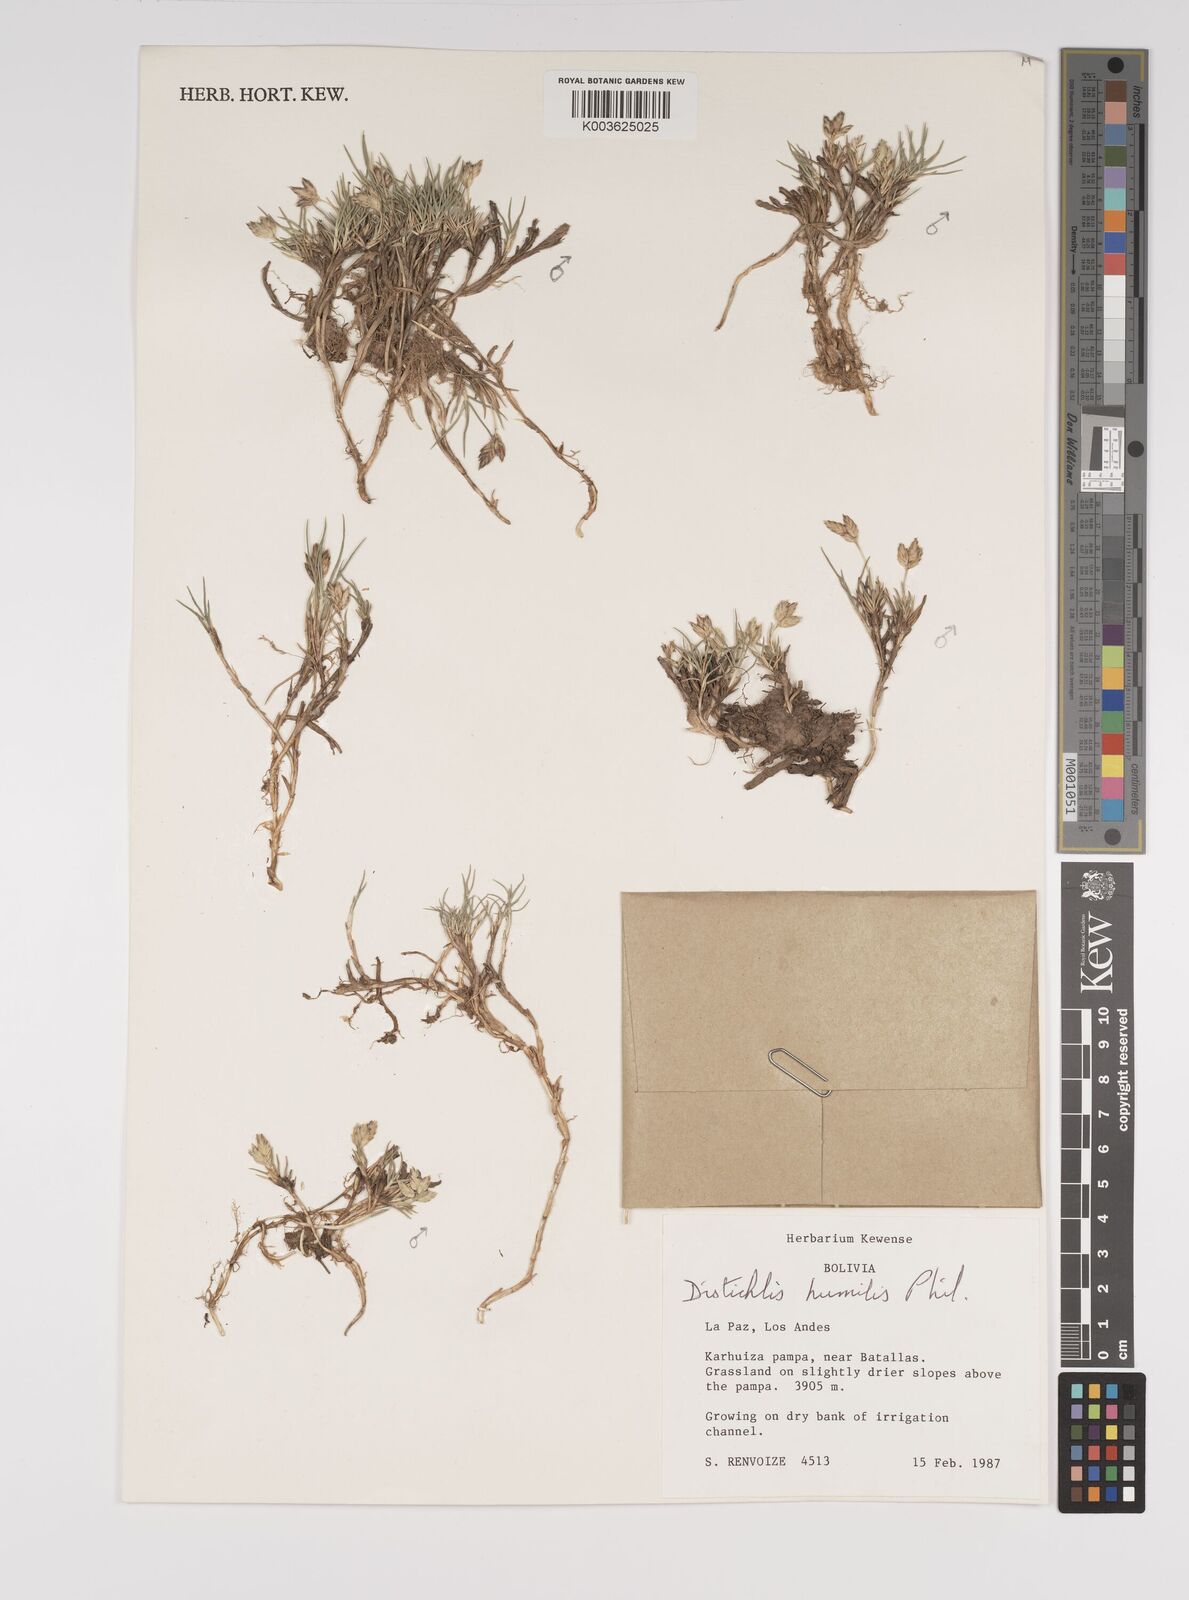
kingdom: Plantae
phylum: Tracheophyta
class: Liliopsida
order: Poales
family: Poaceae
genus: Distichlis
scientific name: Distichlis humilis
